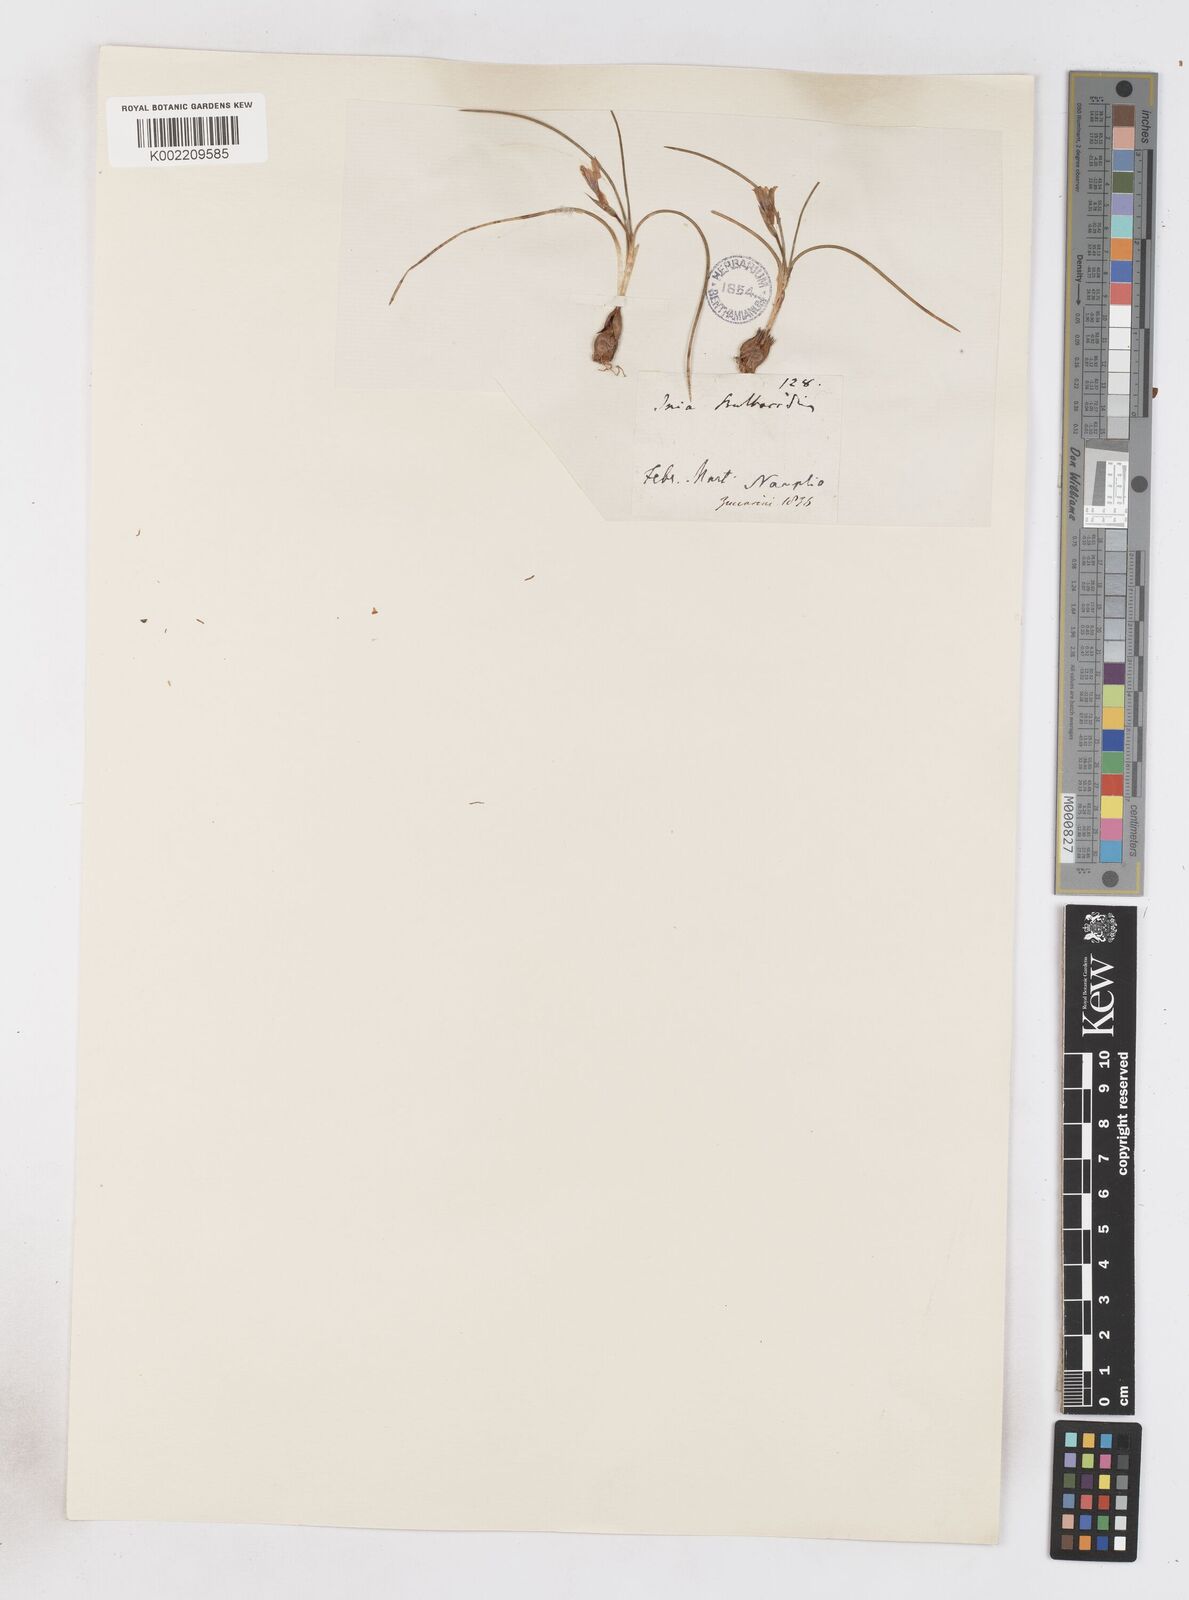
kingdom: Plantae
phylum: Tracheophyta
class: Liliopsida
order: Asparagales
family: Iridaceae
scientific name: Iridaceae
